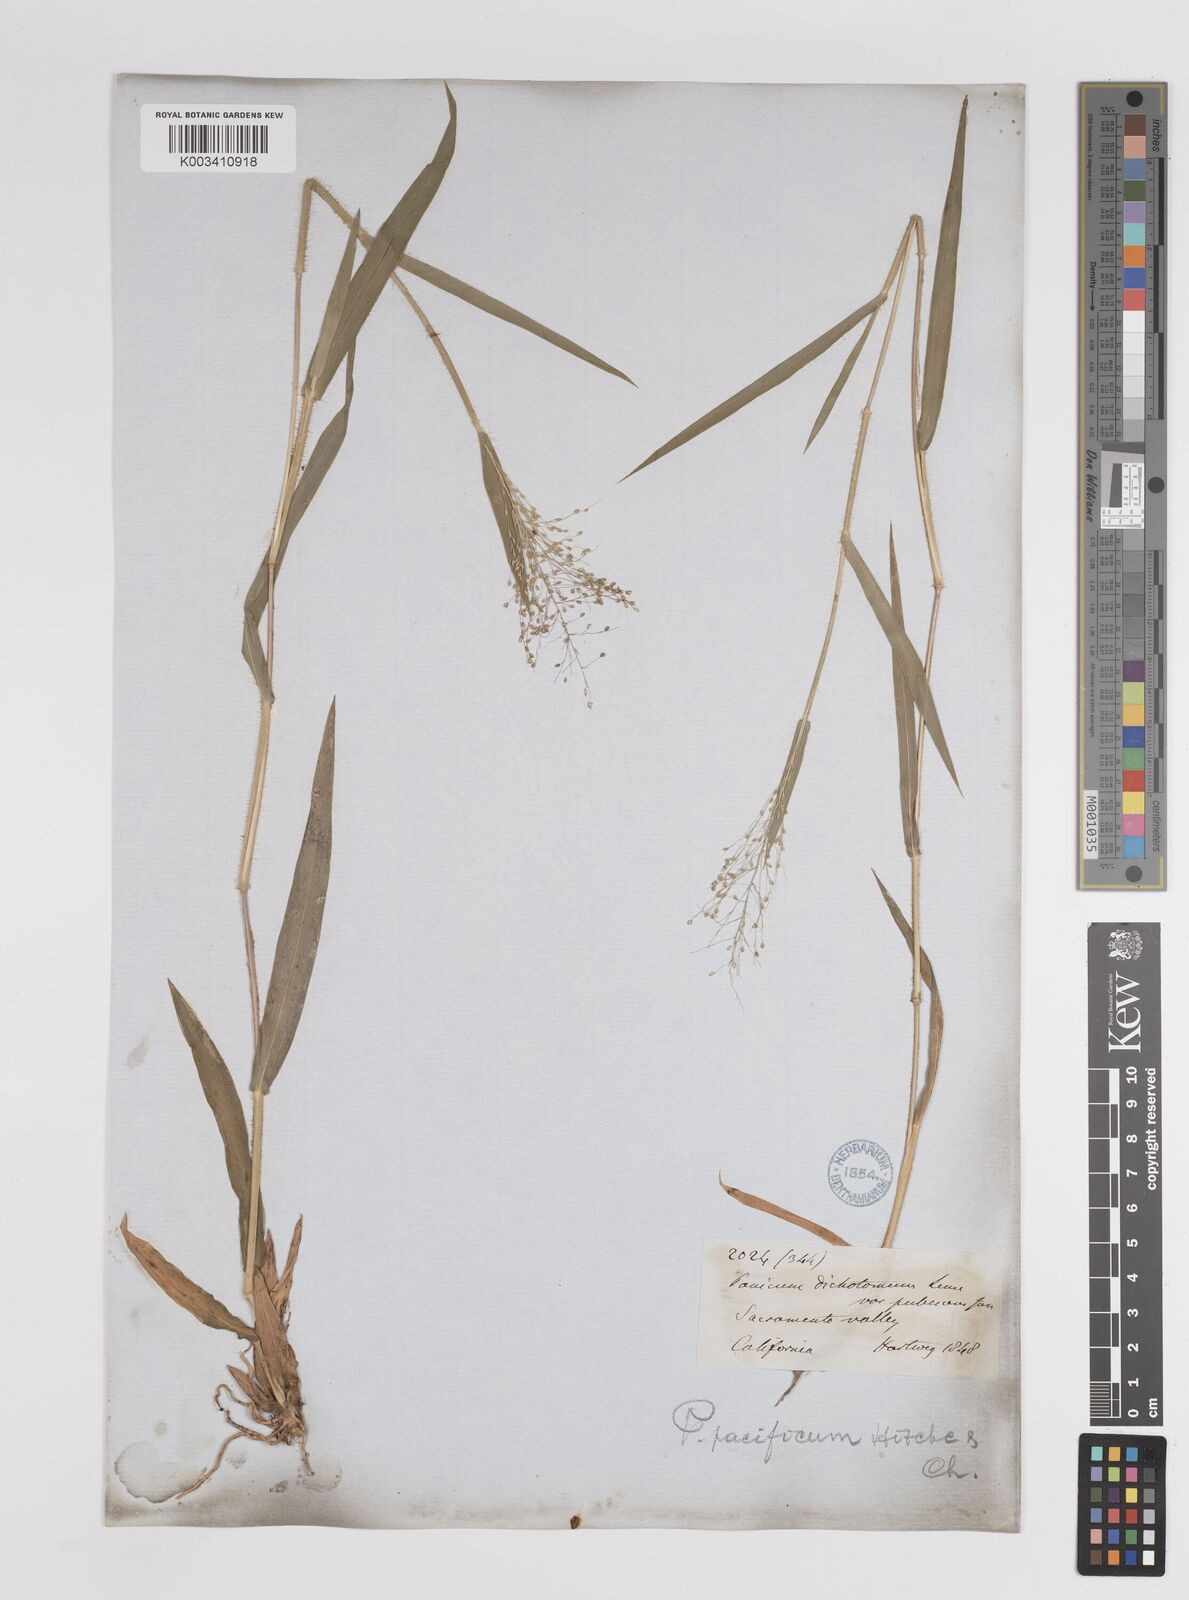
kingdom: Plantae
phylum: Tracheophyta
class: Liliopsida
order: Poales
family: Poaceae
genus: Dichanthelium
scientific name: Dichanthelium implicatum
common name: Slender-stemmed panicgrass
